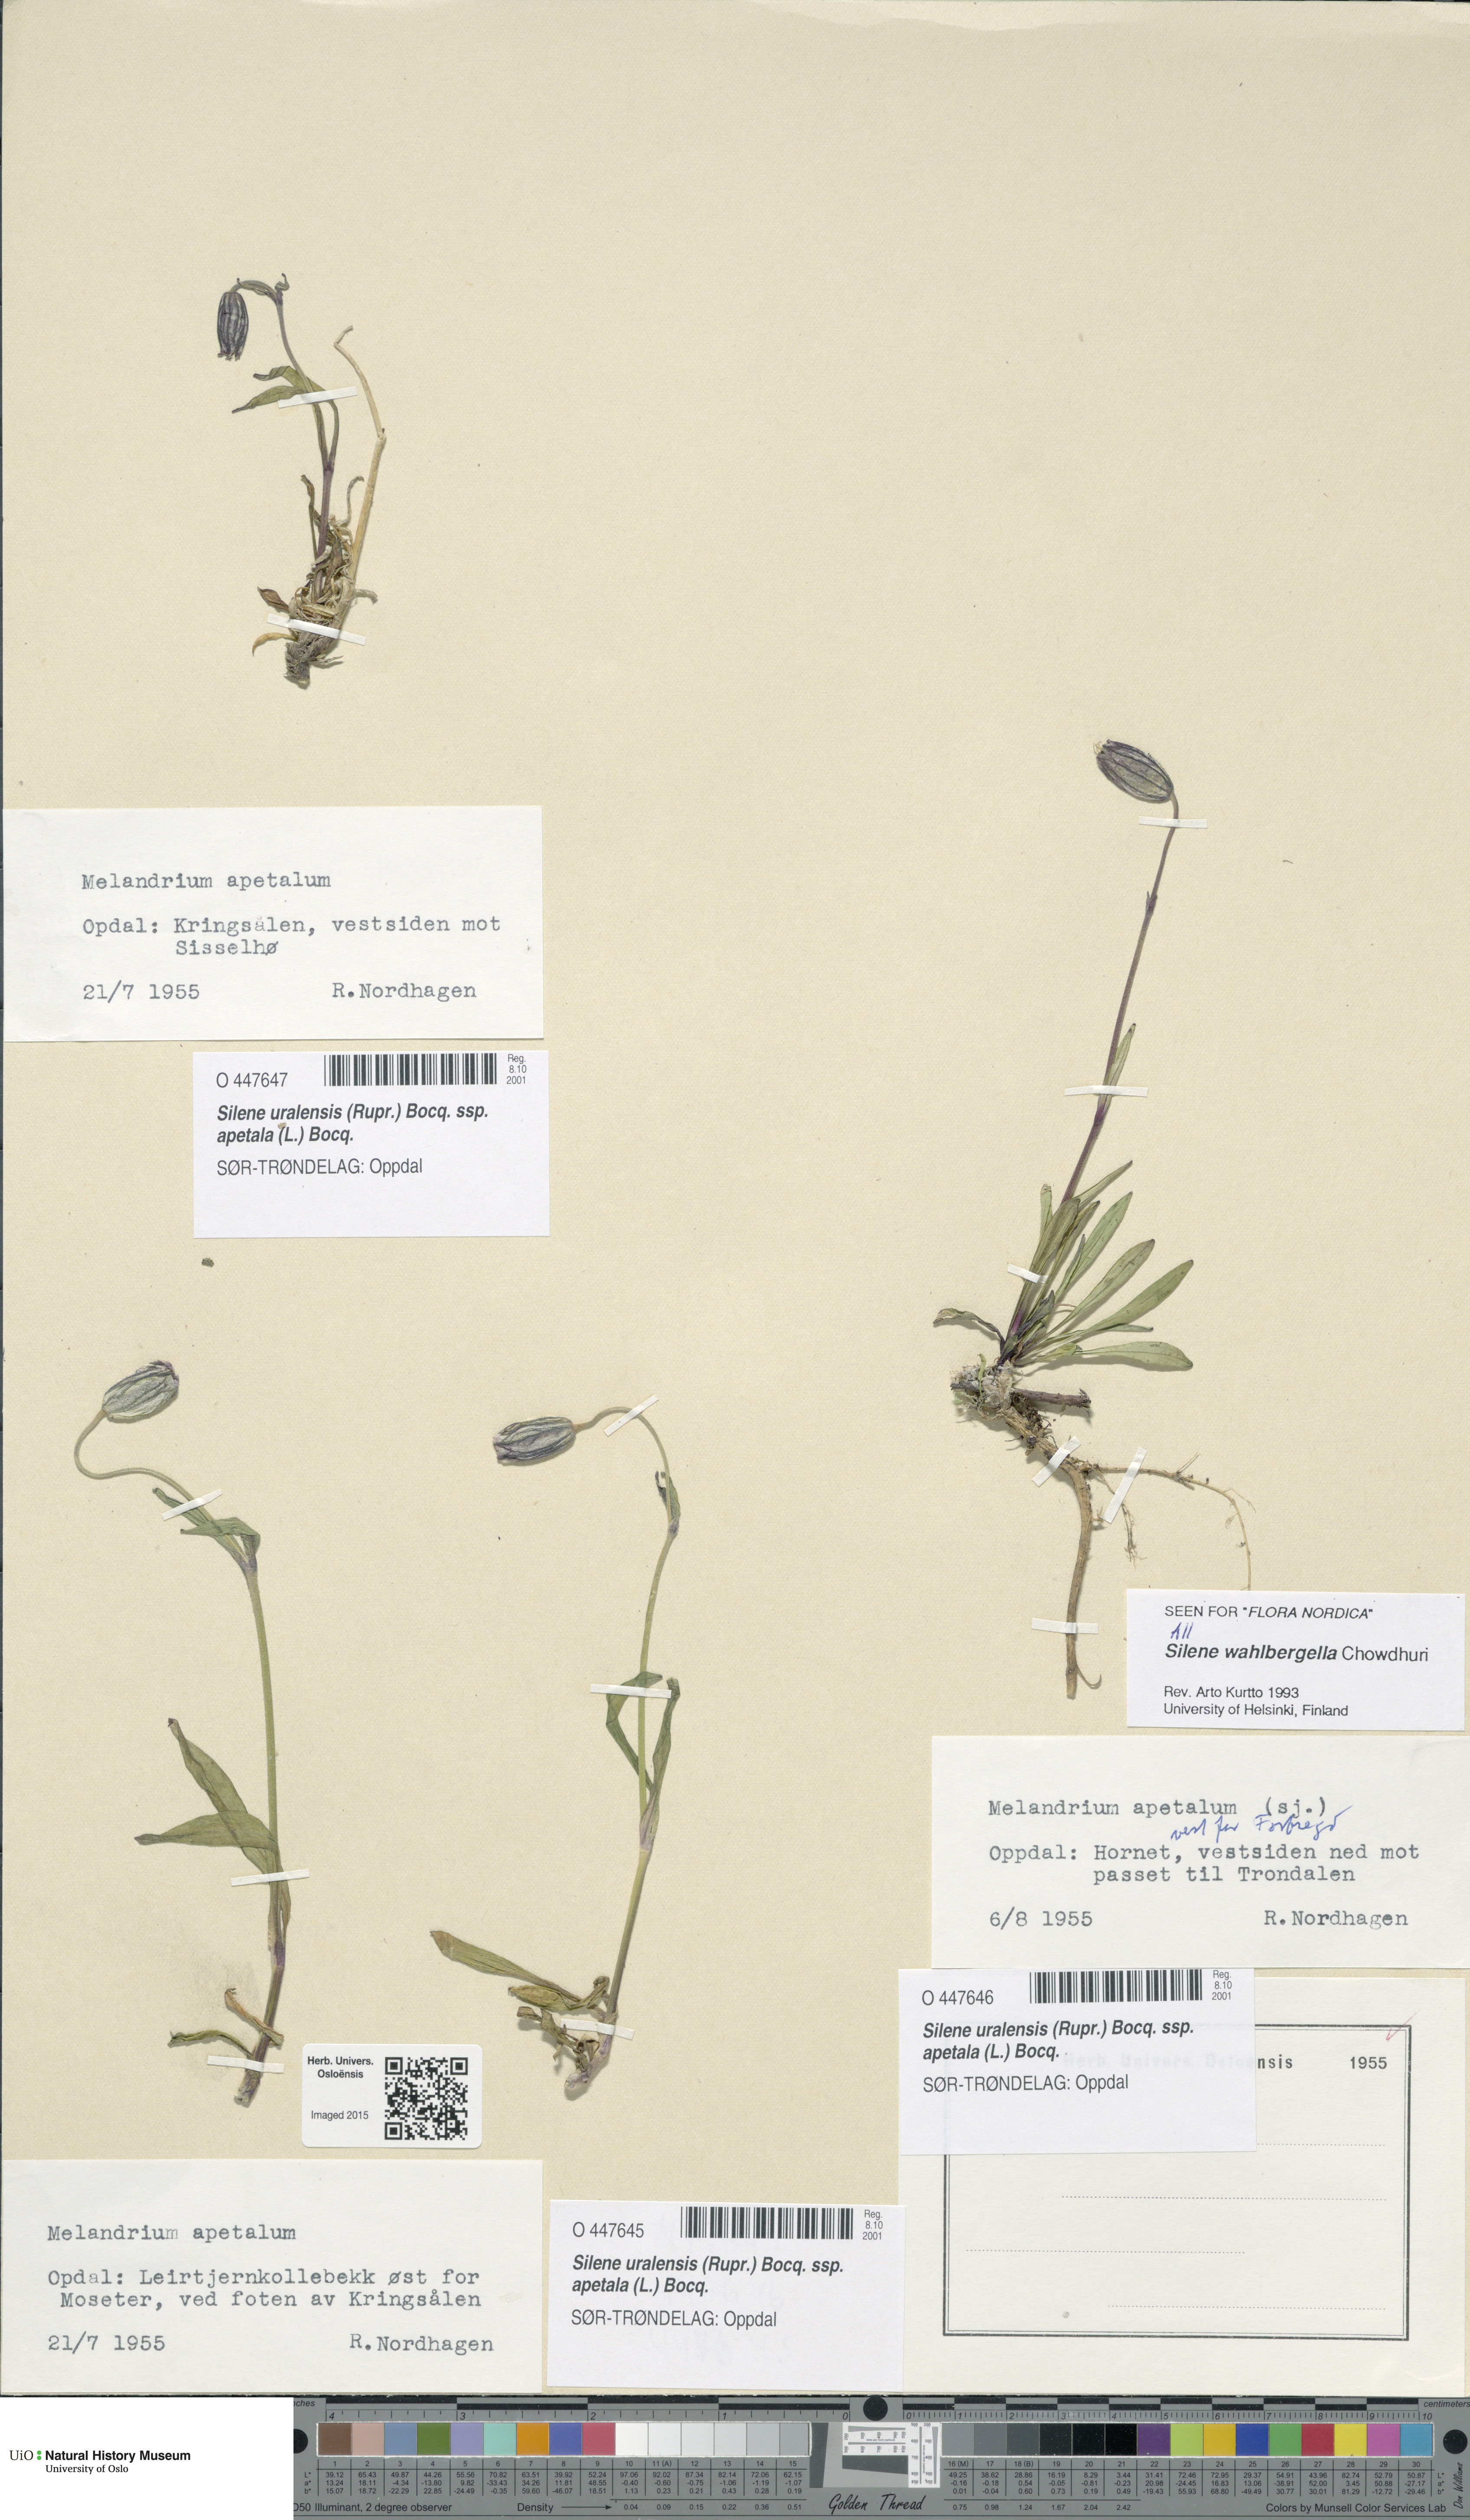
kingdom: Plantae
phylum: Tracheophyta
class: Magnoliopsida
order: Caryophyllales
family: Caryophyllaceae
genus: Silene
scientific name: Silene wahlbergella
